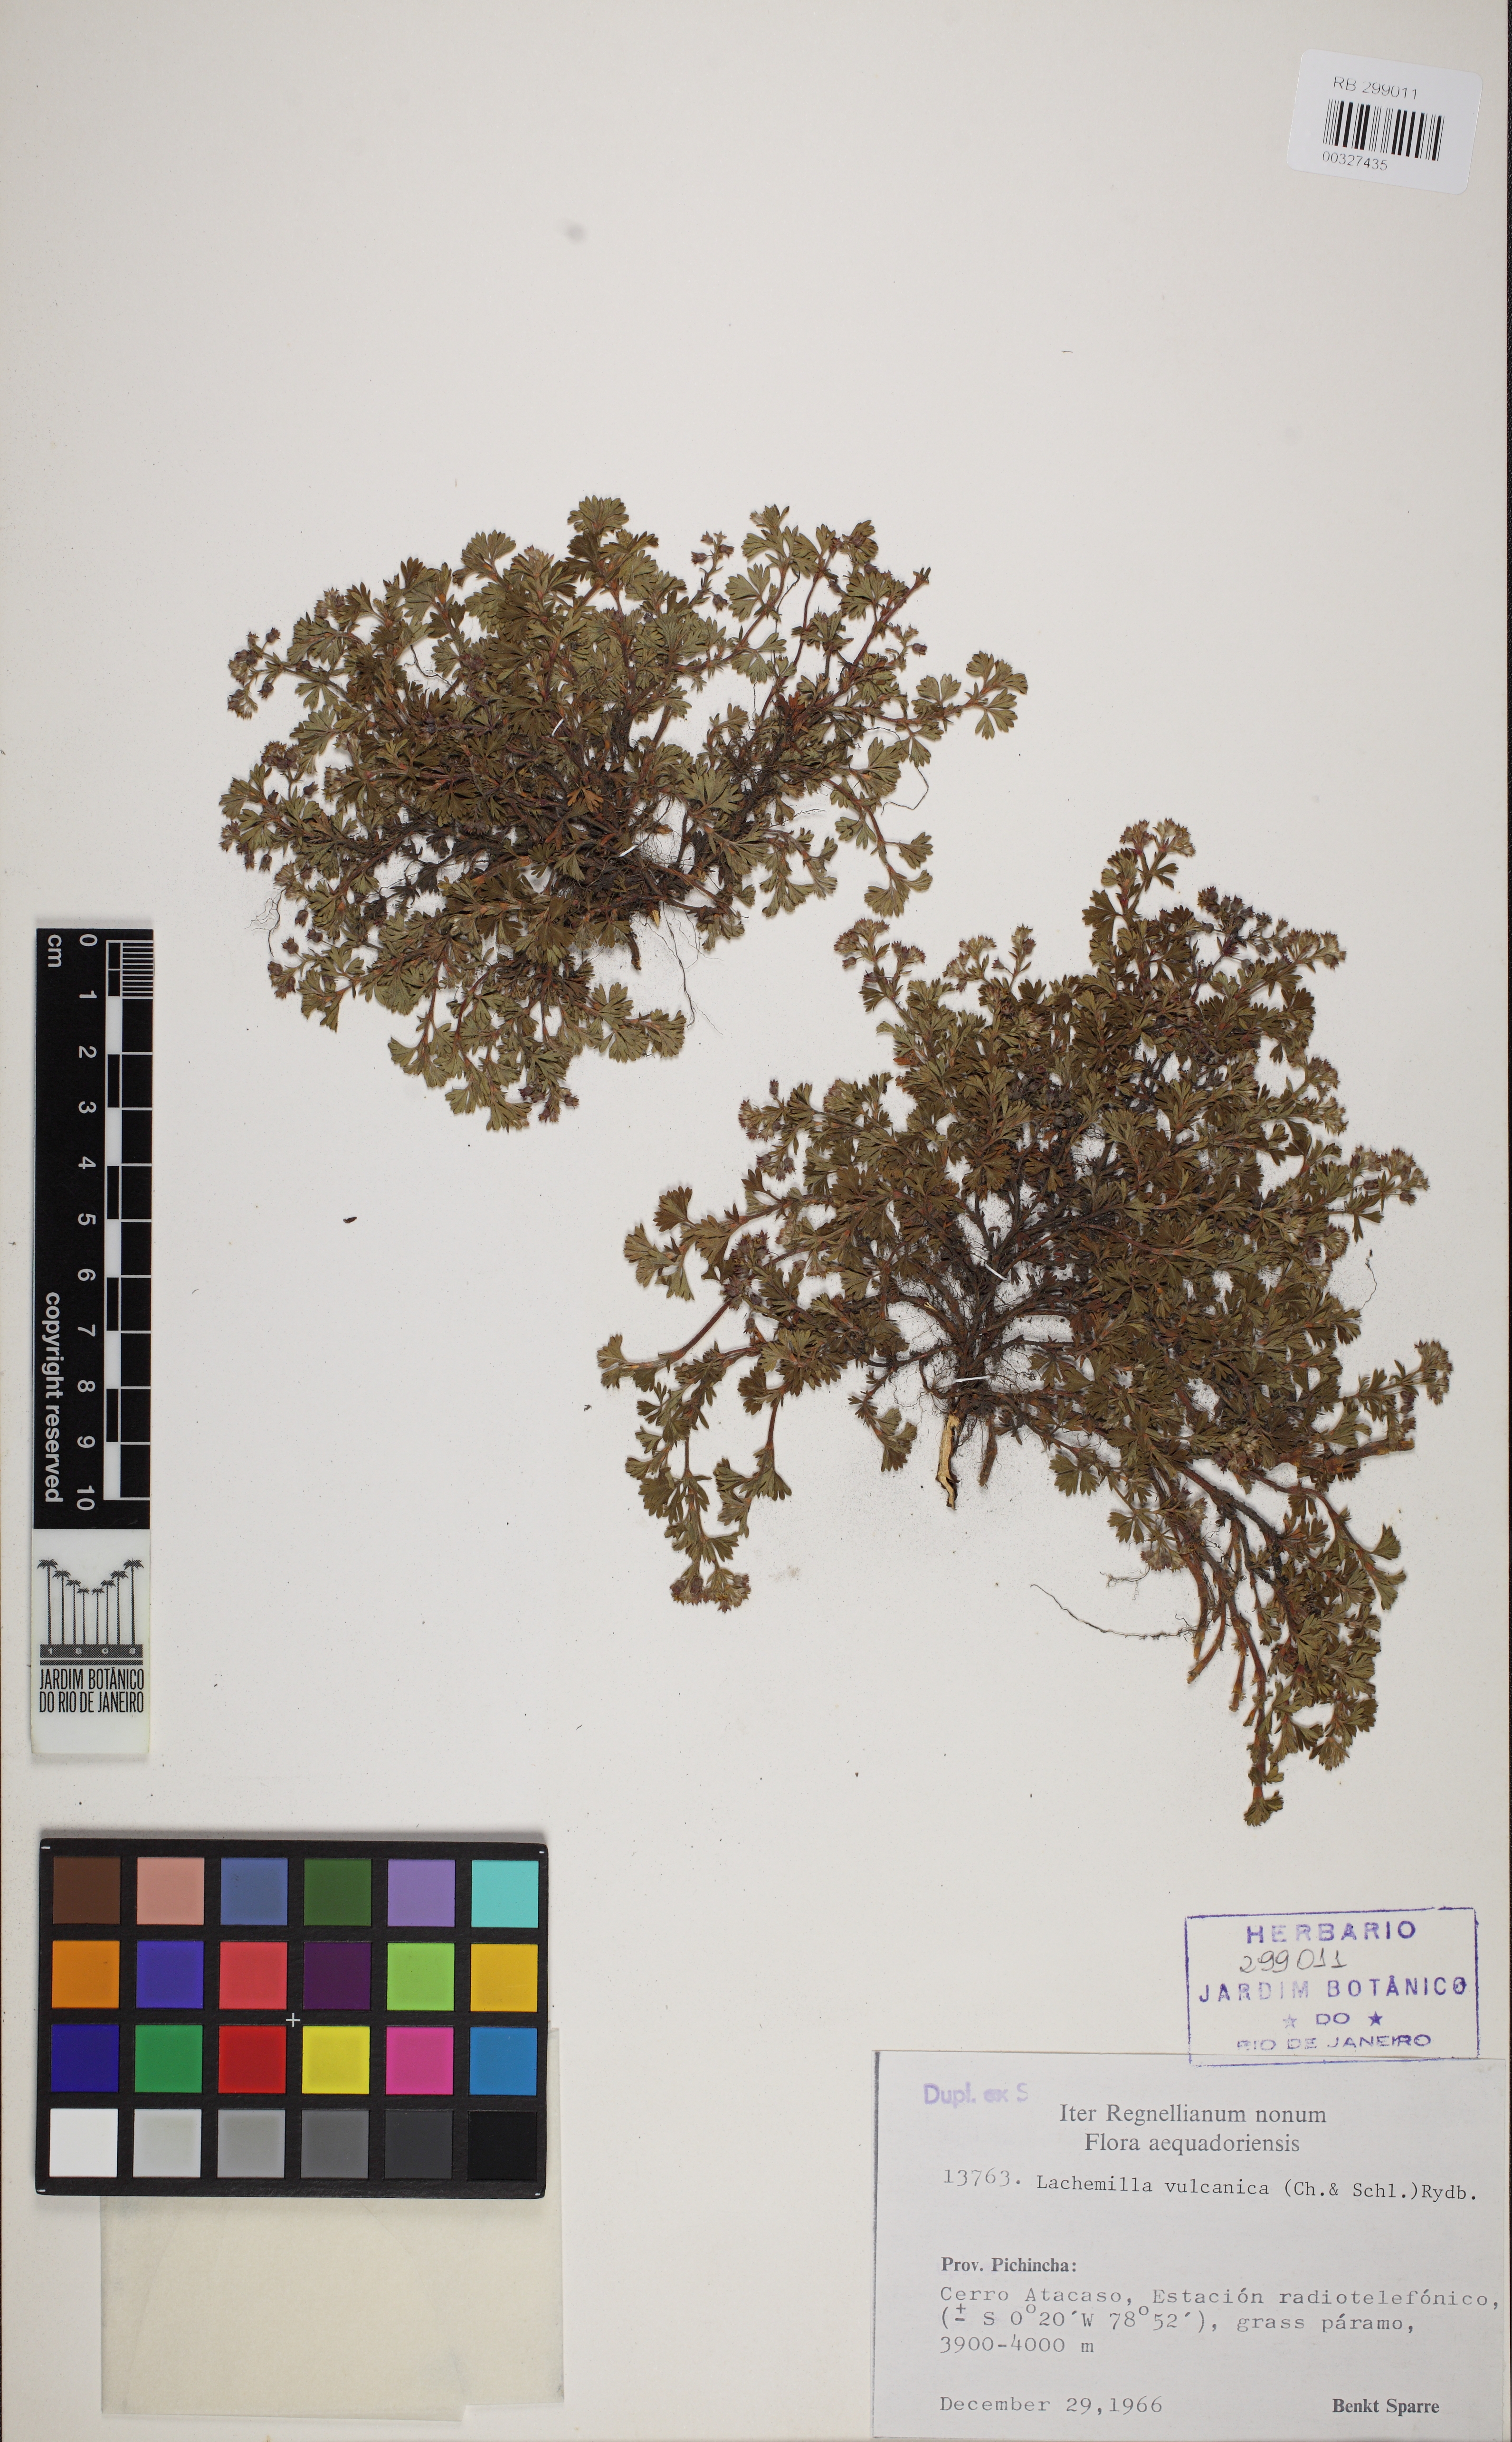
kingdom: Plantae
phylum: Tracheophyta
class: Magnoliopsida
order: Rosales
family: Rosaceae
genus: Lachemilla
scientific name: Lachemilla vulcanica
